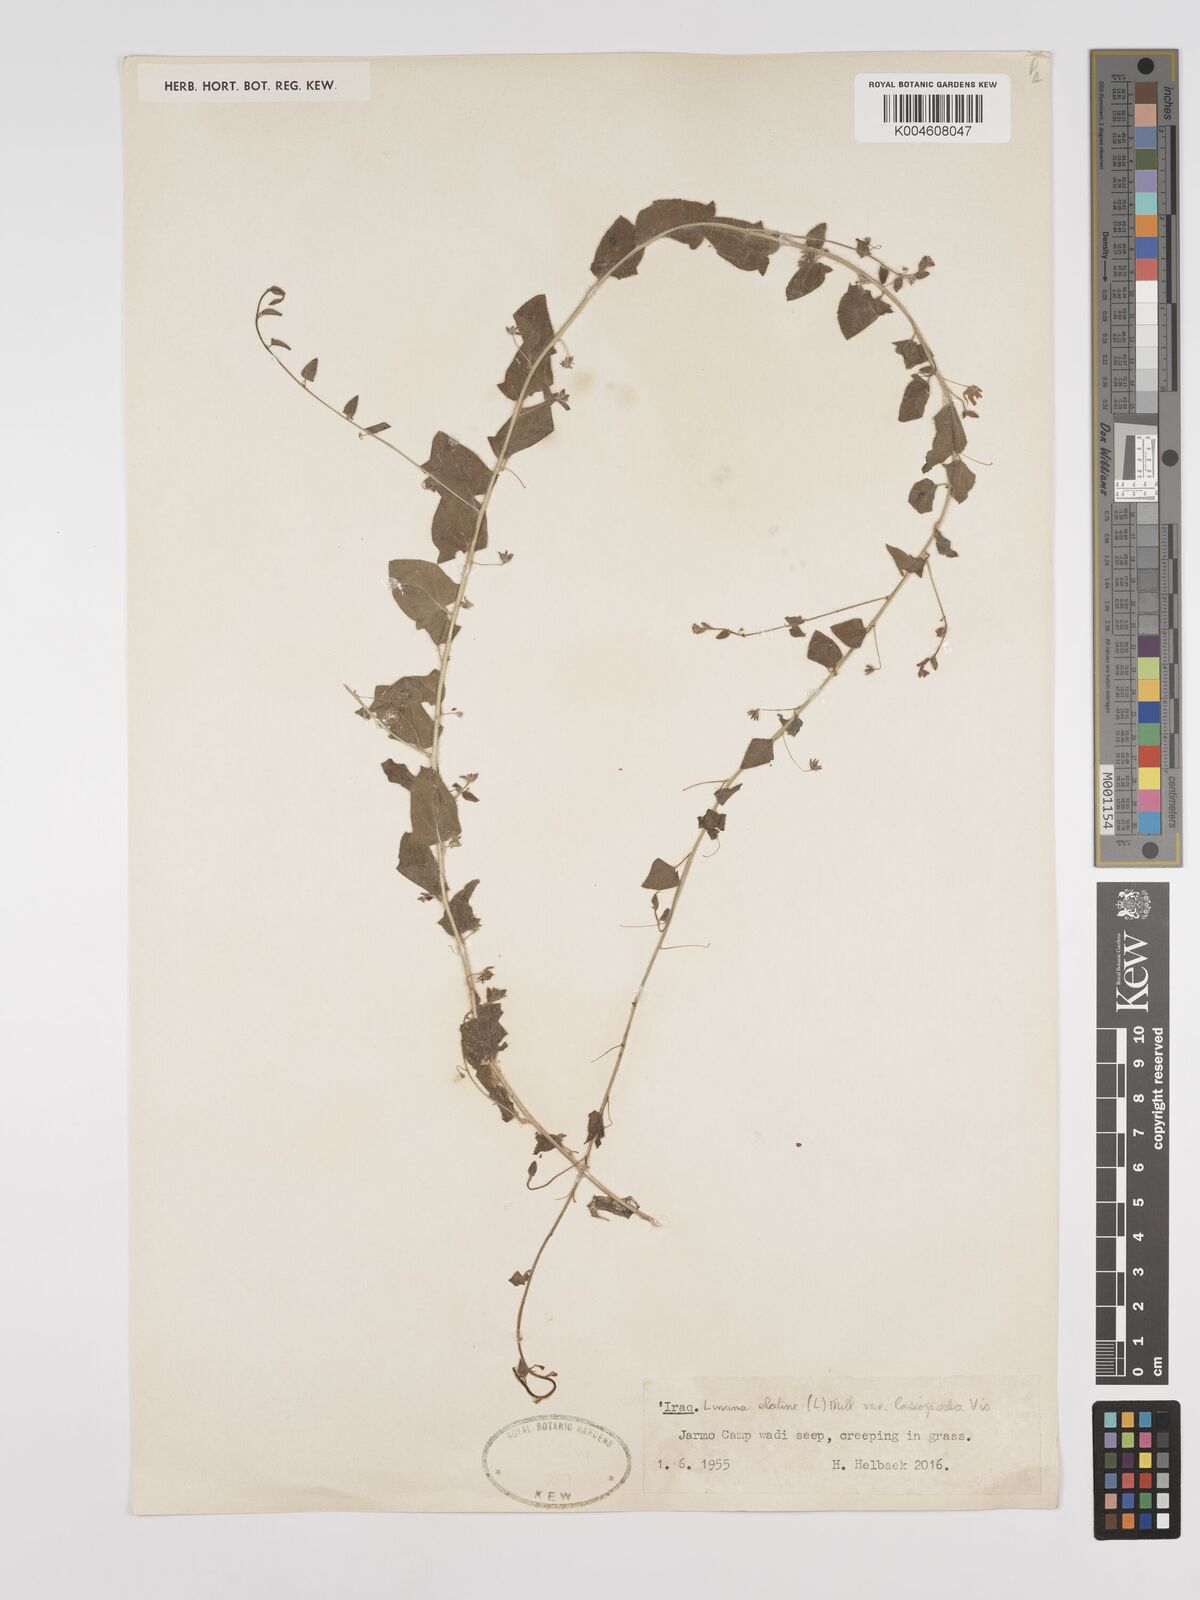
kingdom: Plantae
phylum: Tracheophyta
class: Magnoliopsida
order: Lamiales
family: Plantaginaceae
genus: Kickxia
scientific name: Kickxia elatine
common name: Sharp-leaved fluellen
